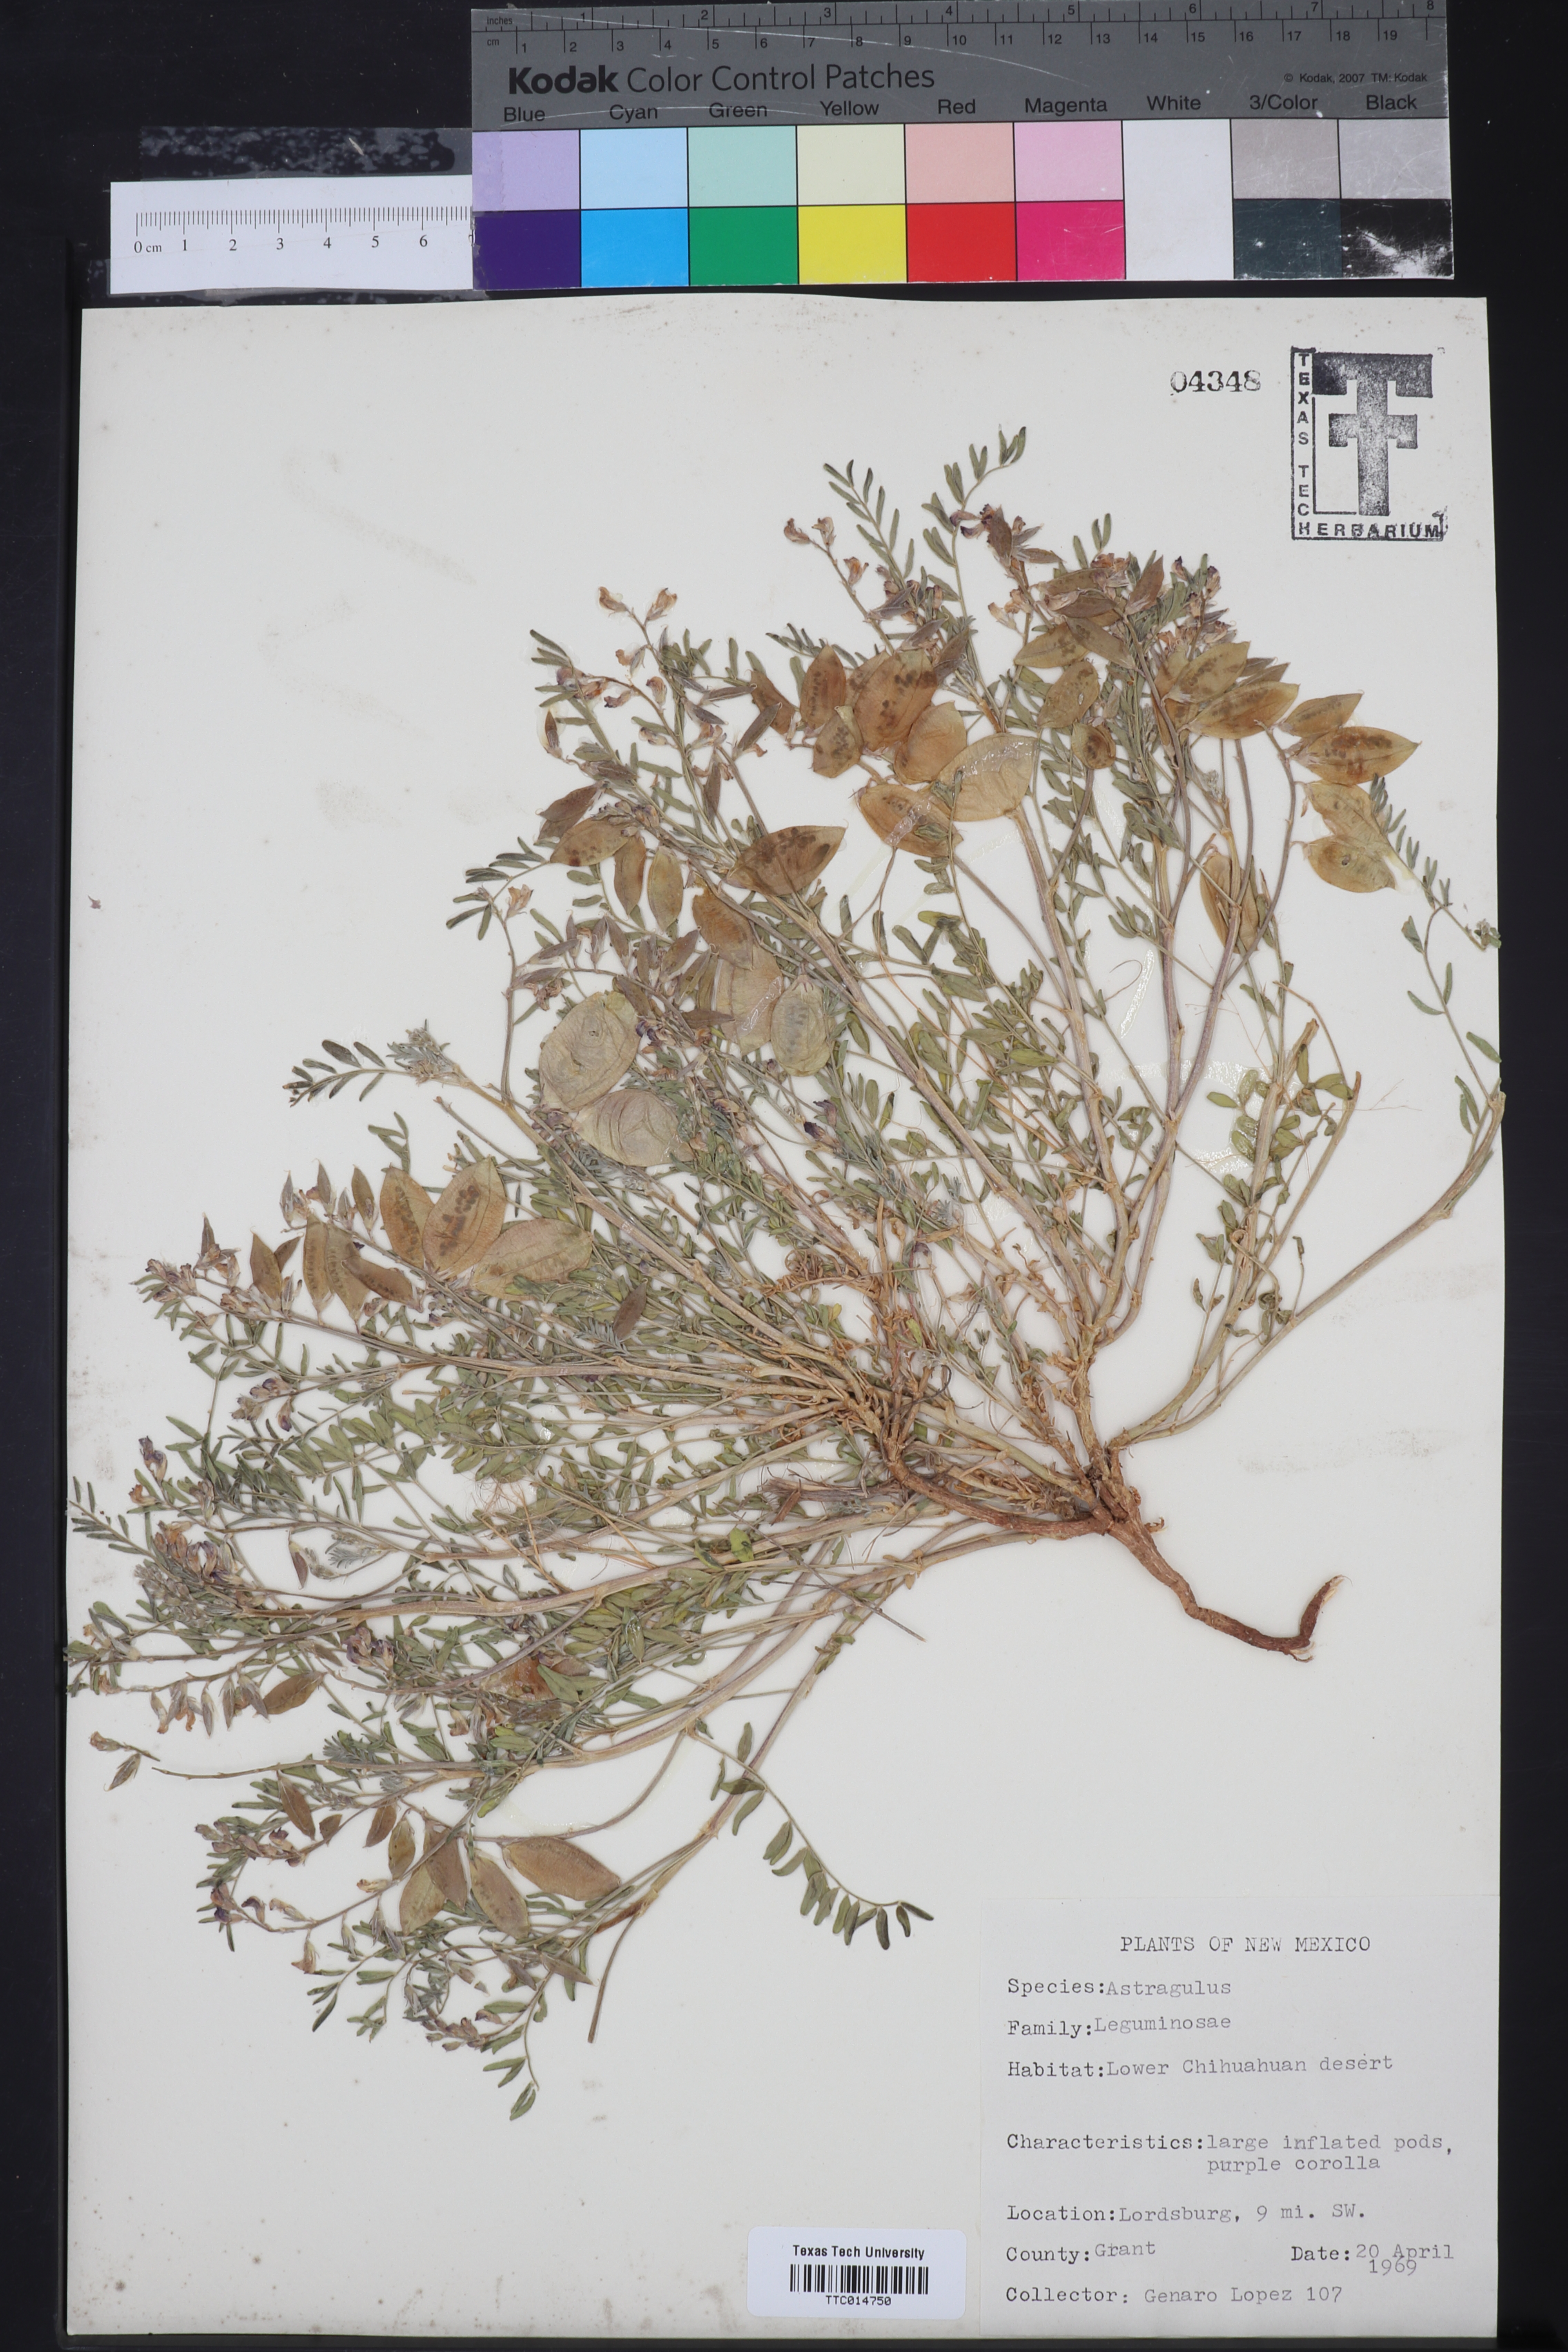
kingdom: Plantae
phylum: Tracheophyta
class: Magnoliopsida
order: Fabales
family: Fabaceae
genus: Astragalus
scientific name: Astragalus
